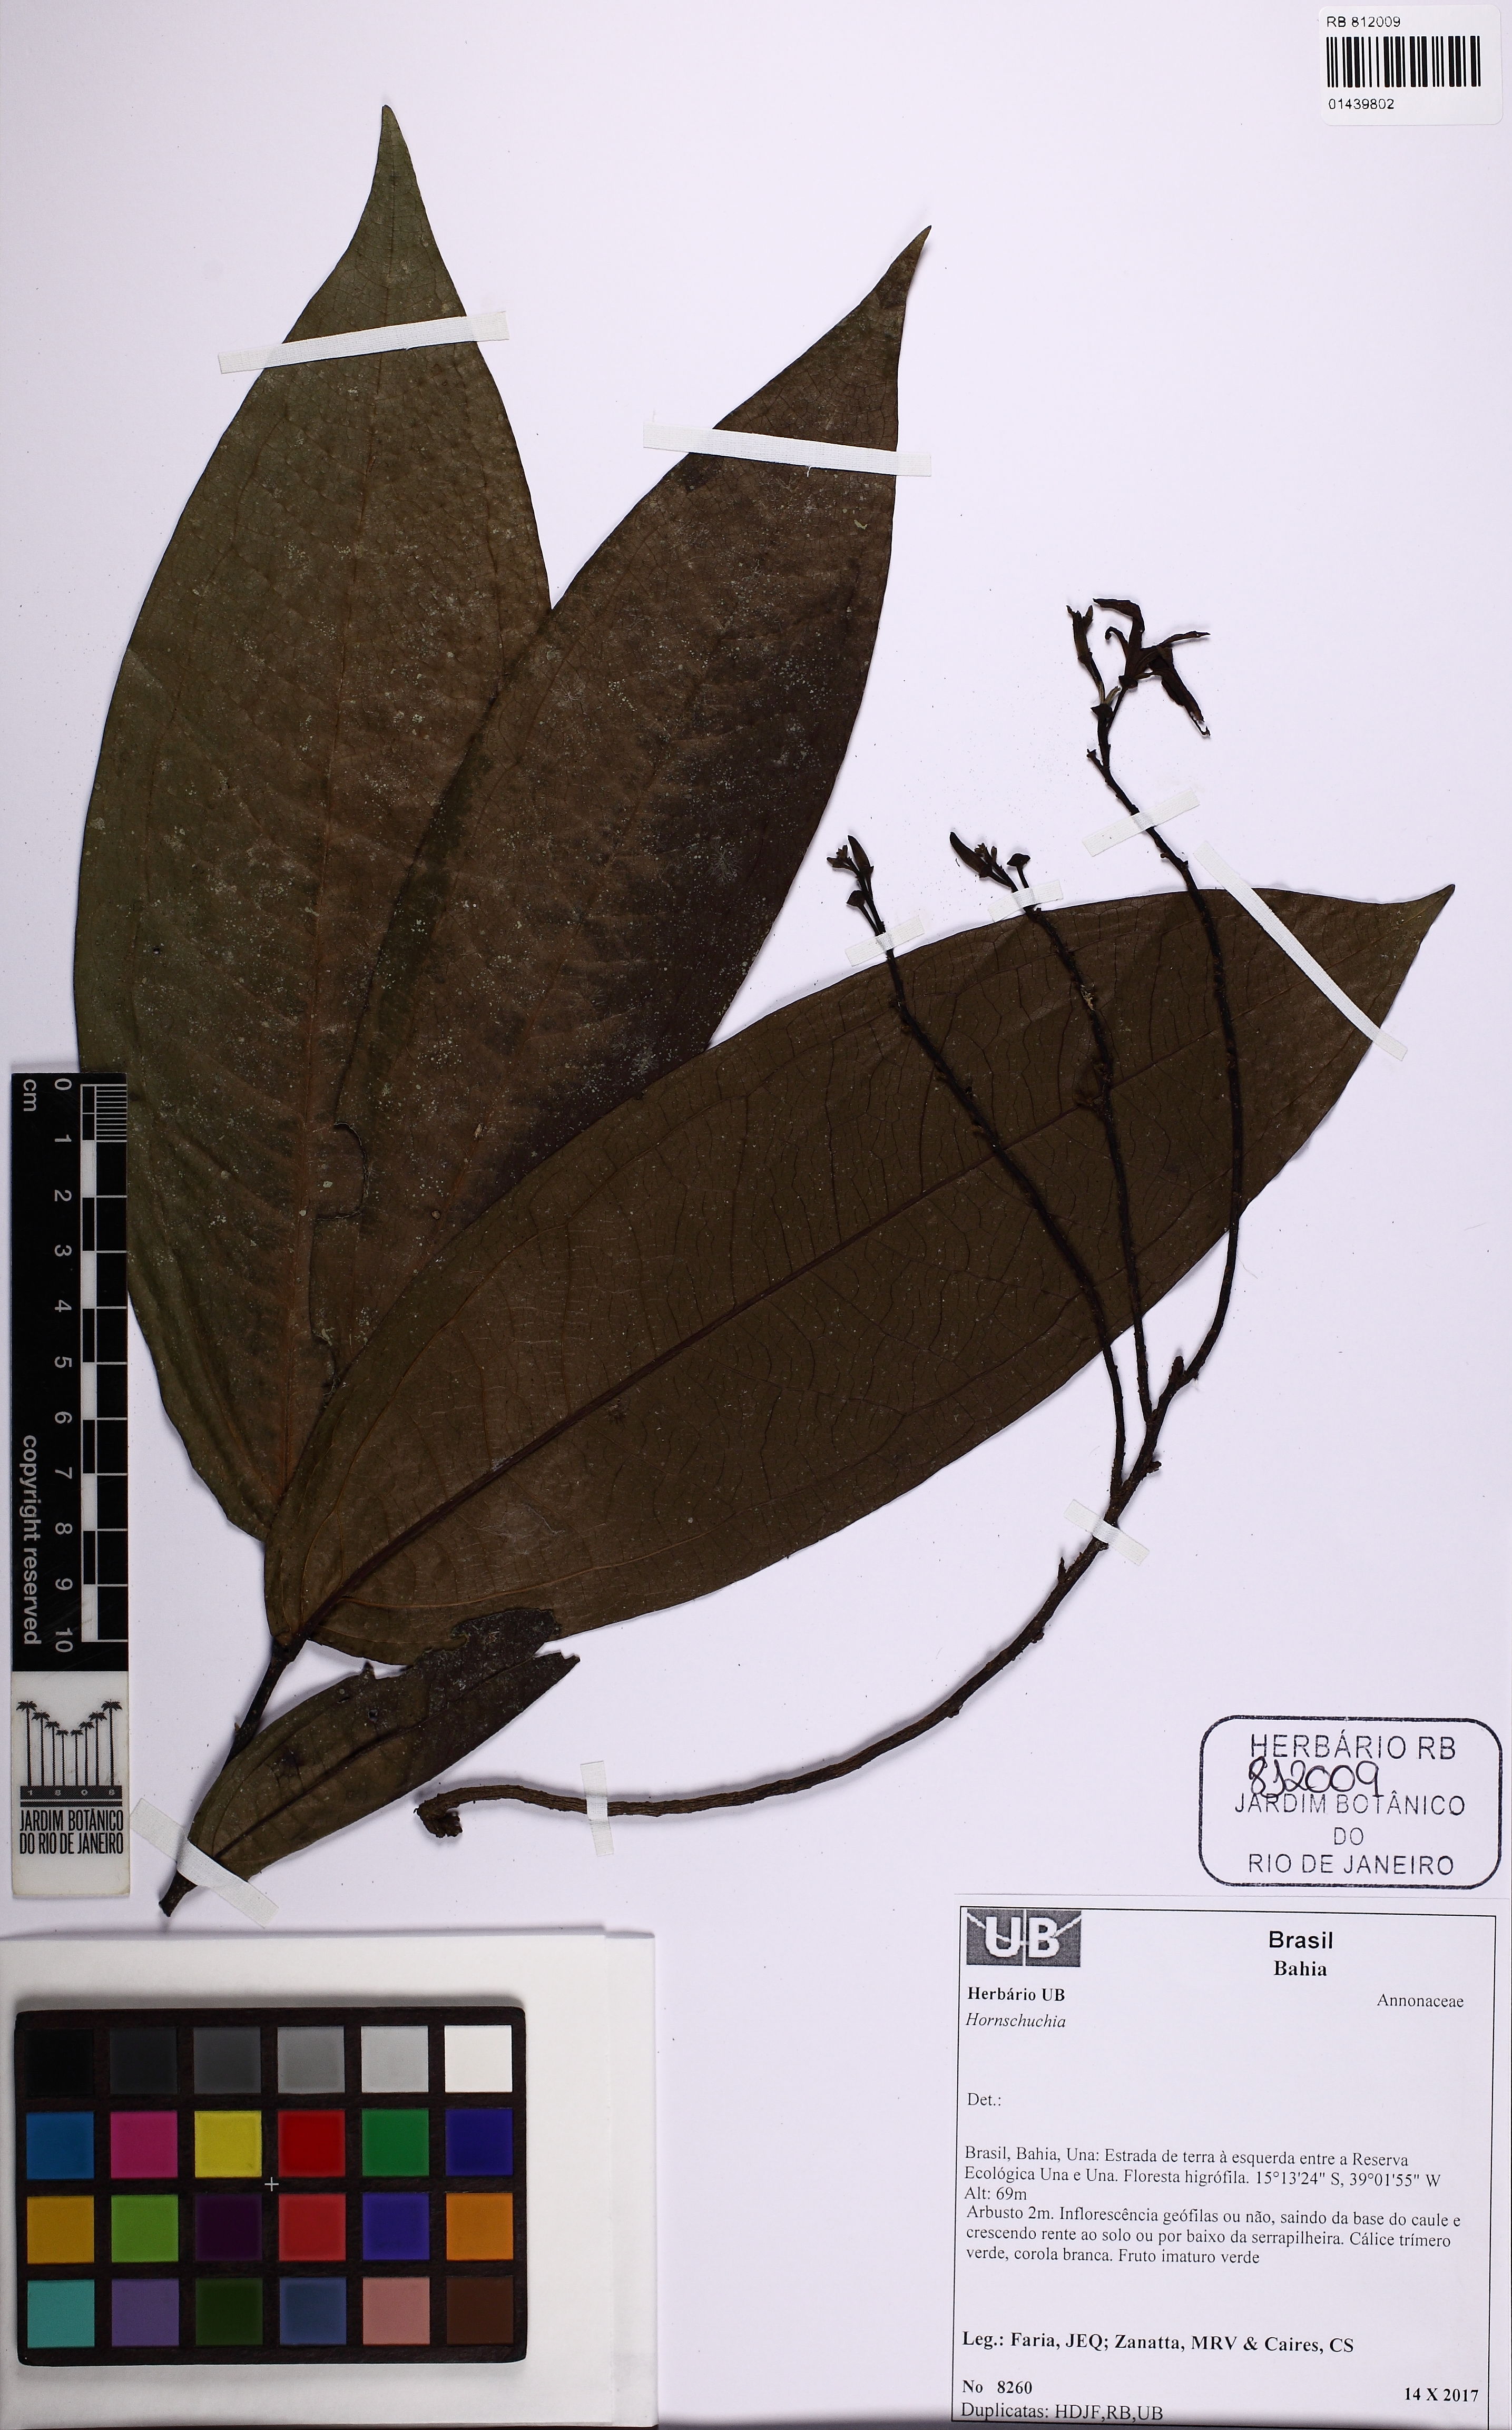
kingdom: Plantae
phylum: Tracheophyta
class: Magnoliopsida
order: Magnoliales
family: Annonaceae
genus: Hornschuchia
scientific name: Hornschuchia bryotrophe
